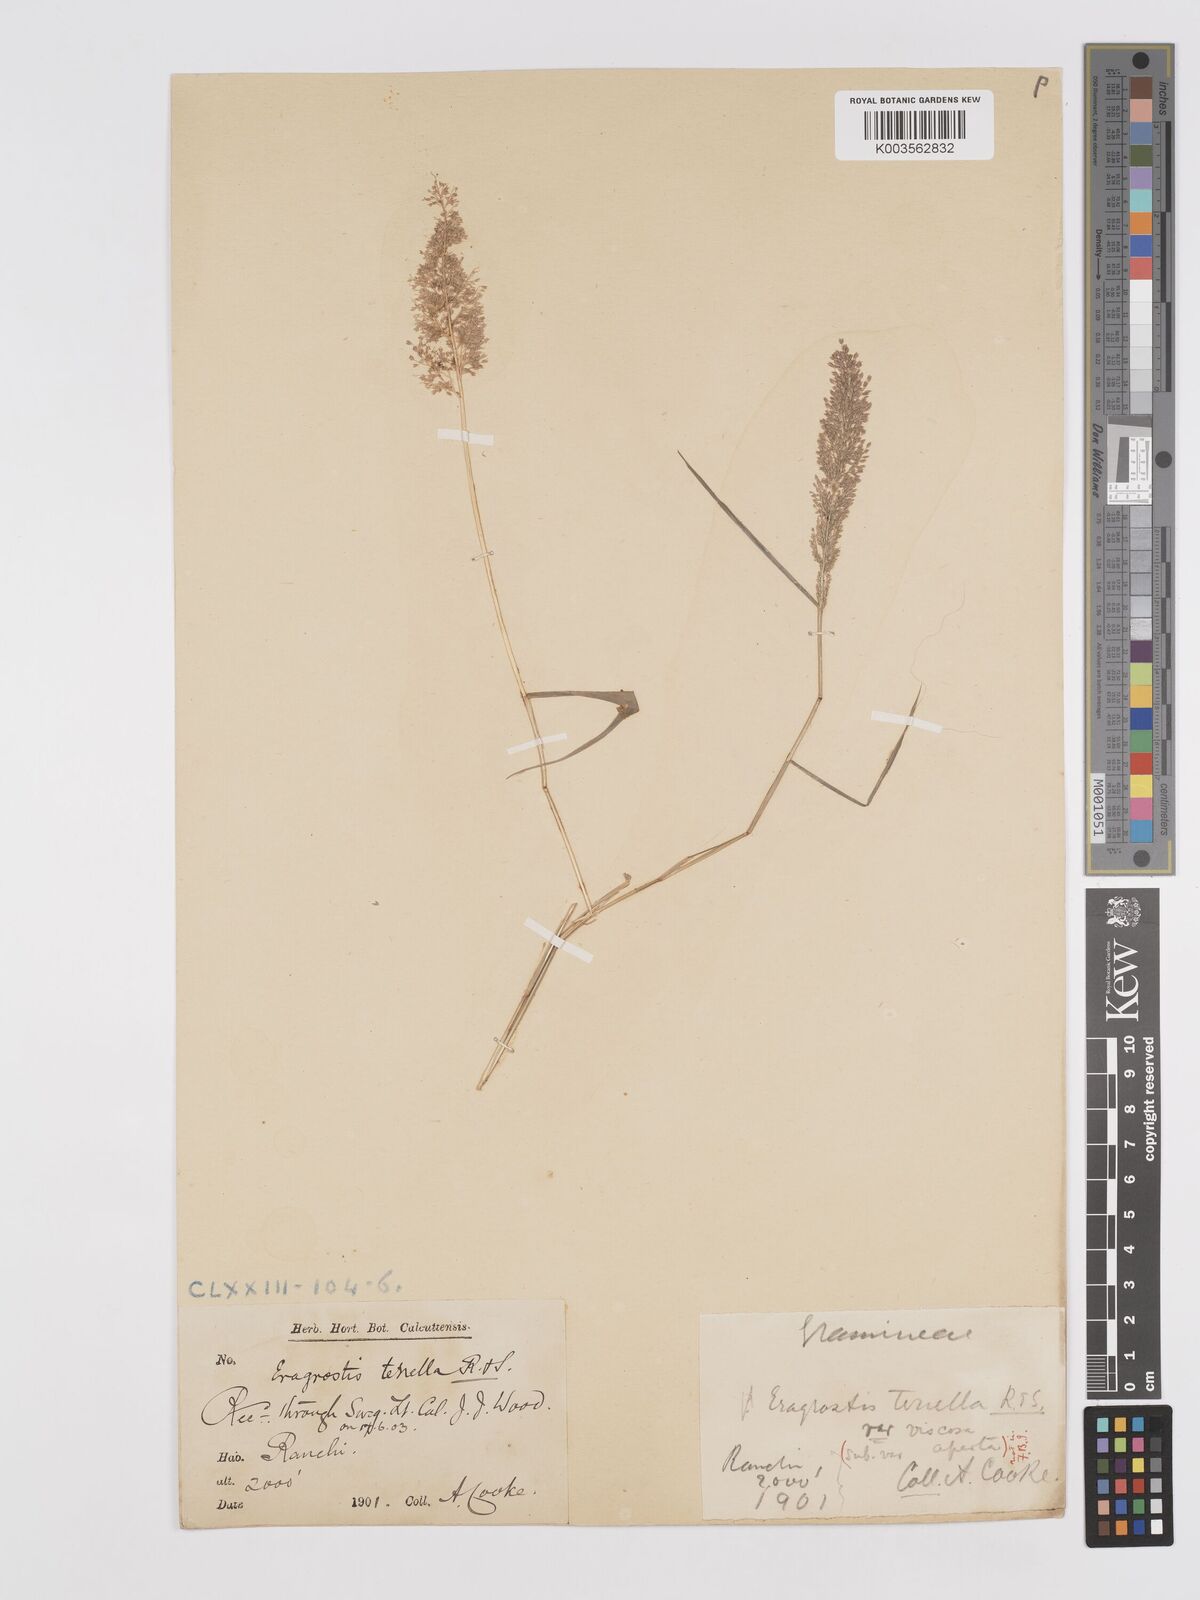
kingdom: Plantae
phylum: Tracheophyta
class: Liliopsida
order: Poales
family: Poaceae
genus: Eragrostis
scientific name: Eragrostis viscosa
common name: Sticky love grass
